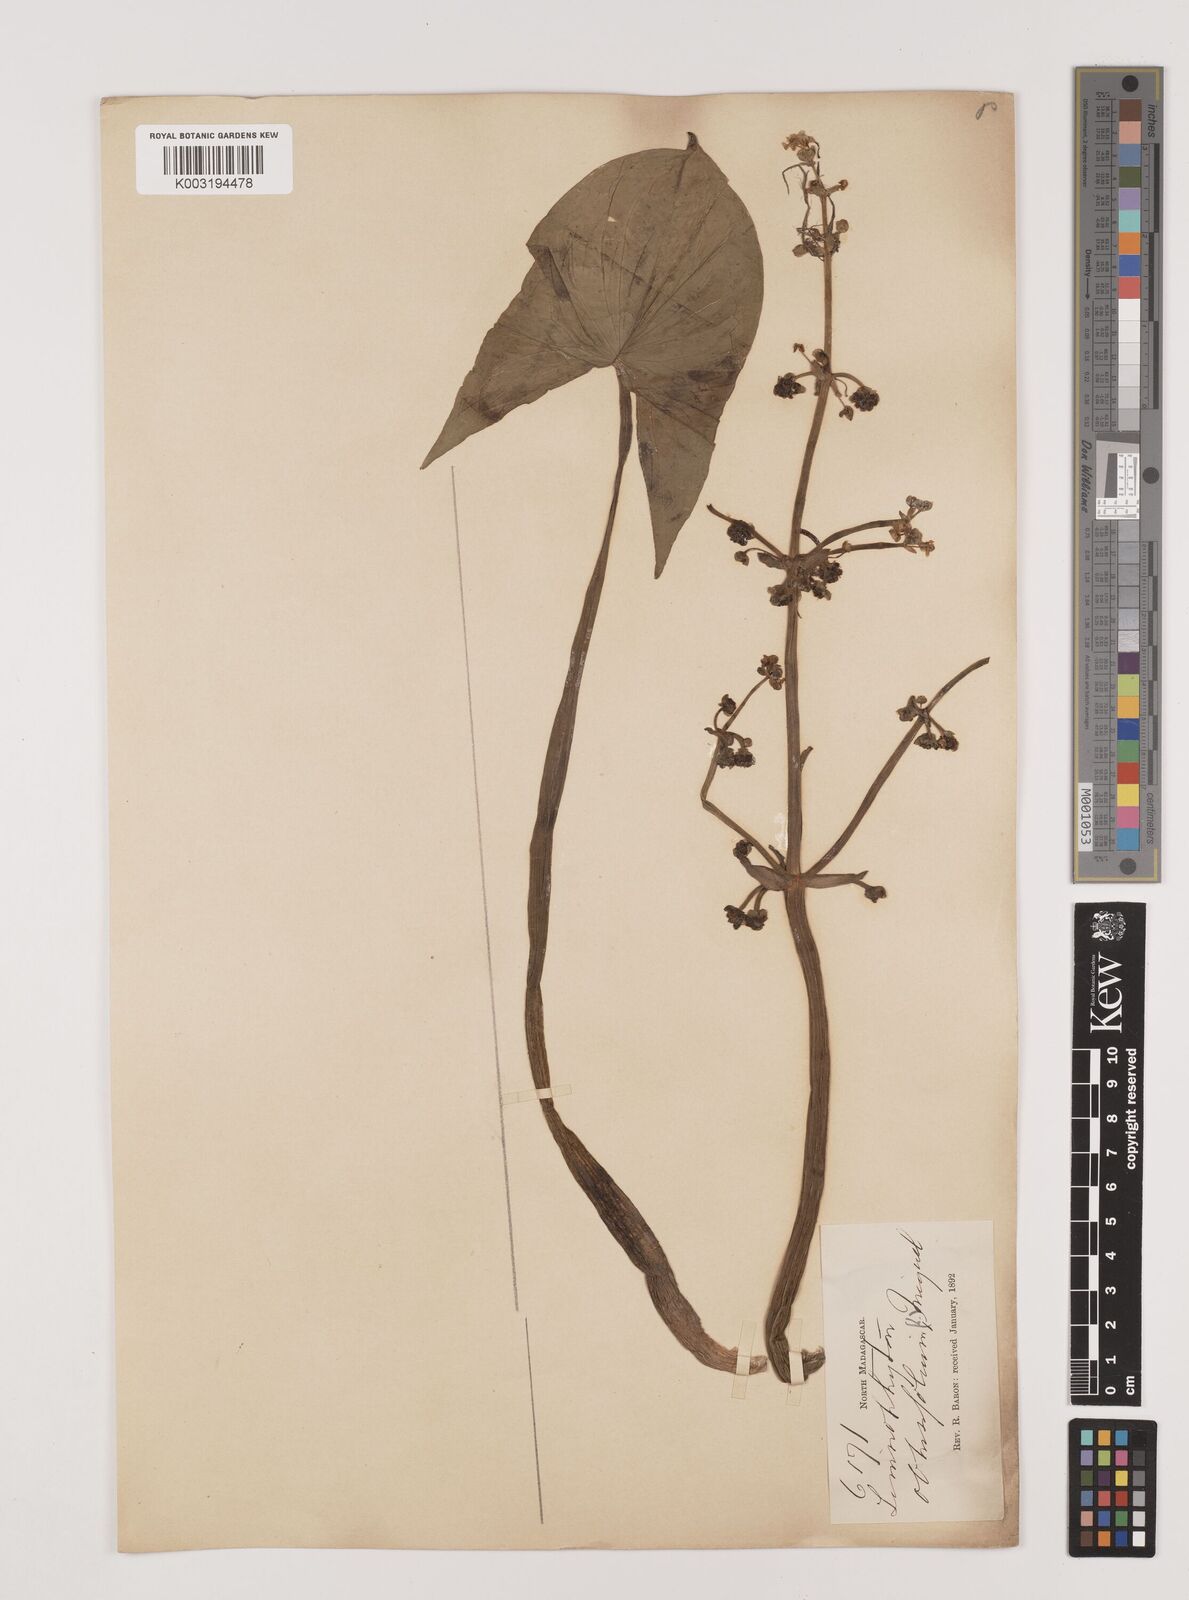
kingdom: Plantae
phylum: Tracheophyta
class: Liliopsida
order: Alismatales
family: Alismataceae
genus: Limnophyton
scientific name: Limnophyton obtusifolium
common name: Arrow head
